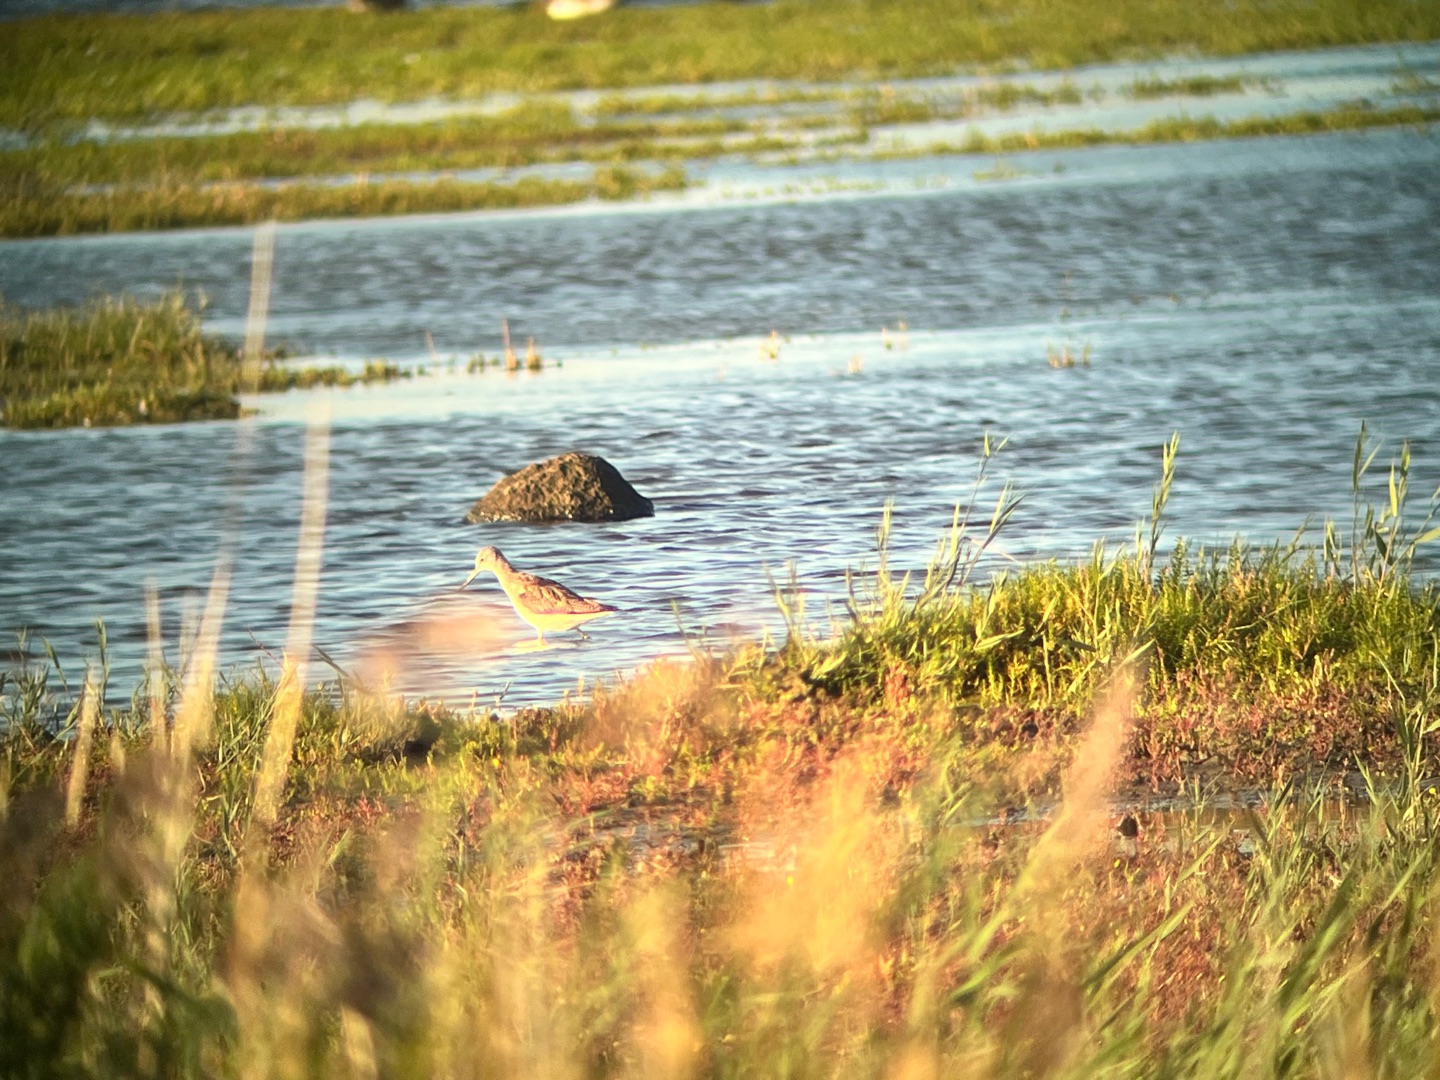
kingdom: Animalia
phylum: Chordata
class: Aves
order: Charadriiformes
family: Scolopacidae
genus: Tringa
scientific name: Tringa nebularia
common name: Hvidklire
